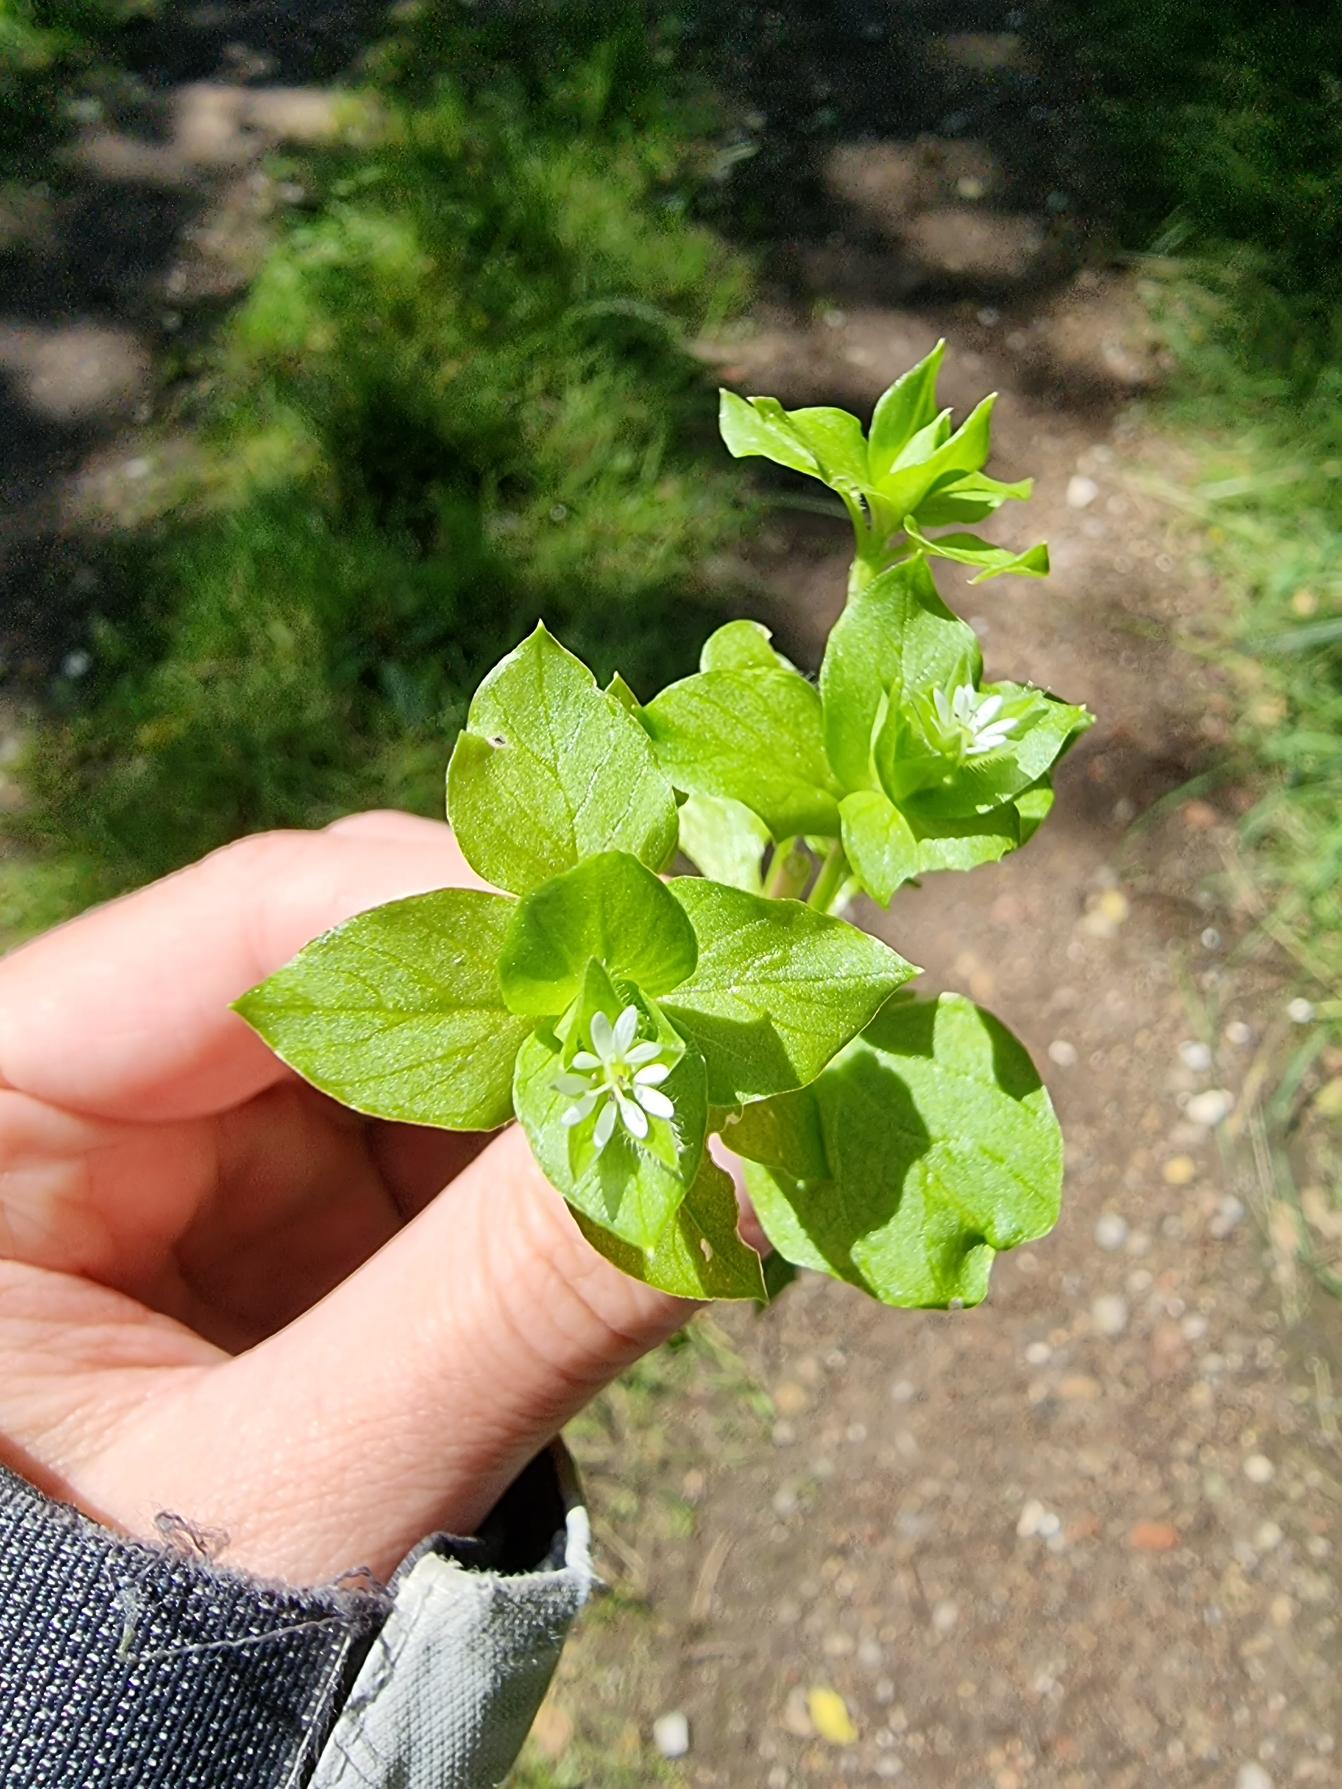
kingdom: Plantae
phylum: Tracheophyta
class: Magnoliopsida
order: Caryophyllales
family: Caryophyllaceae
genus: Stellaria
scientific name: Stellaria media
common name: Almindelig fuglegræs
